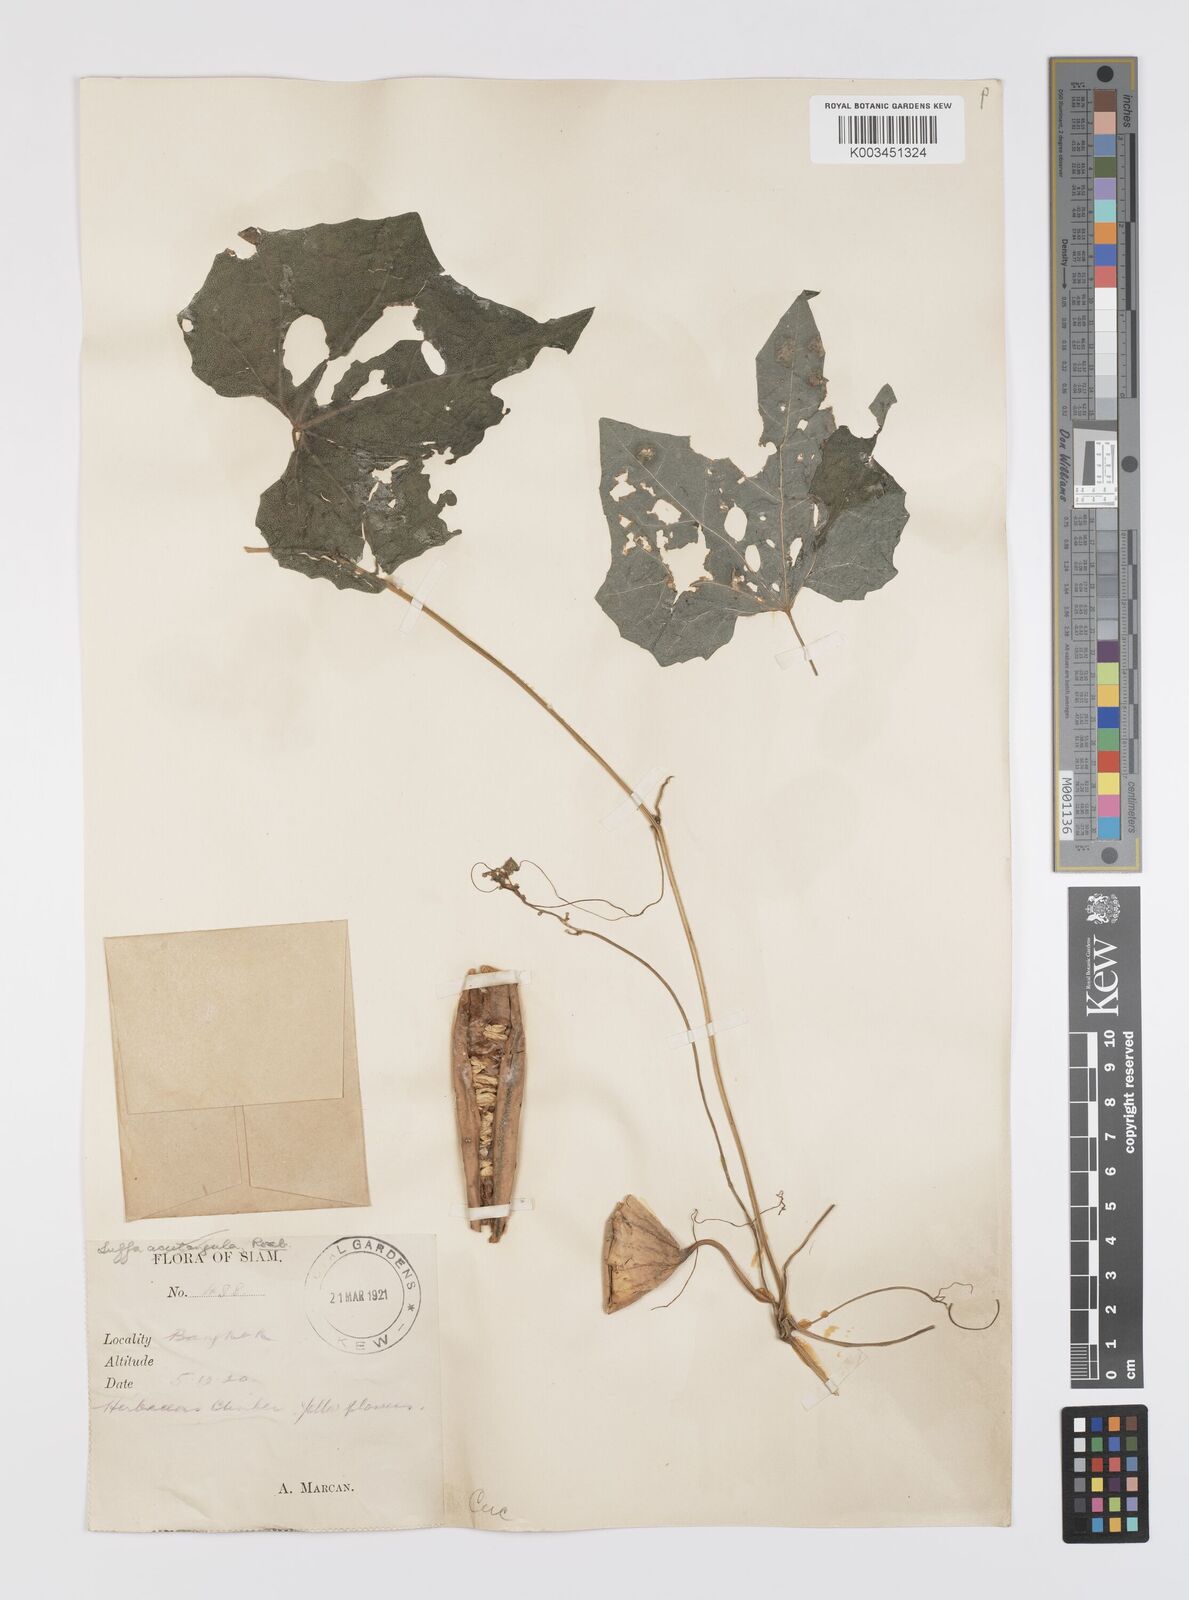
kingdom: Plantae
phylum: Tracheophyta
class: Magnoliopsida
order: Cucurbitales
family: Cucurbitaceae
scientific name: Cucurbitaceae
